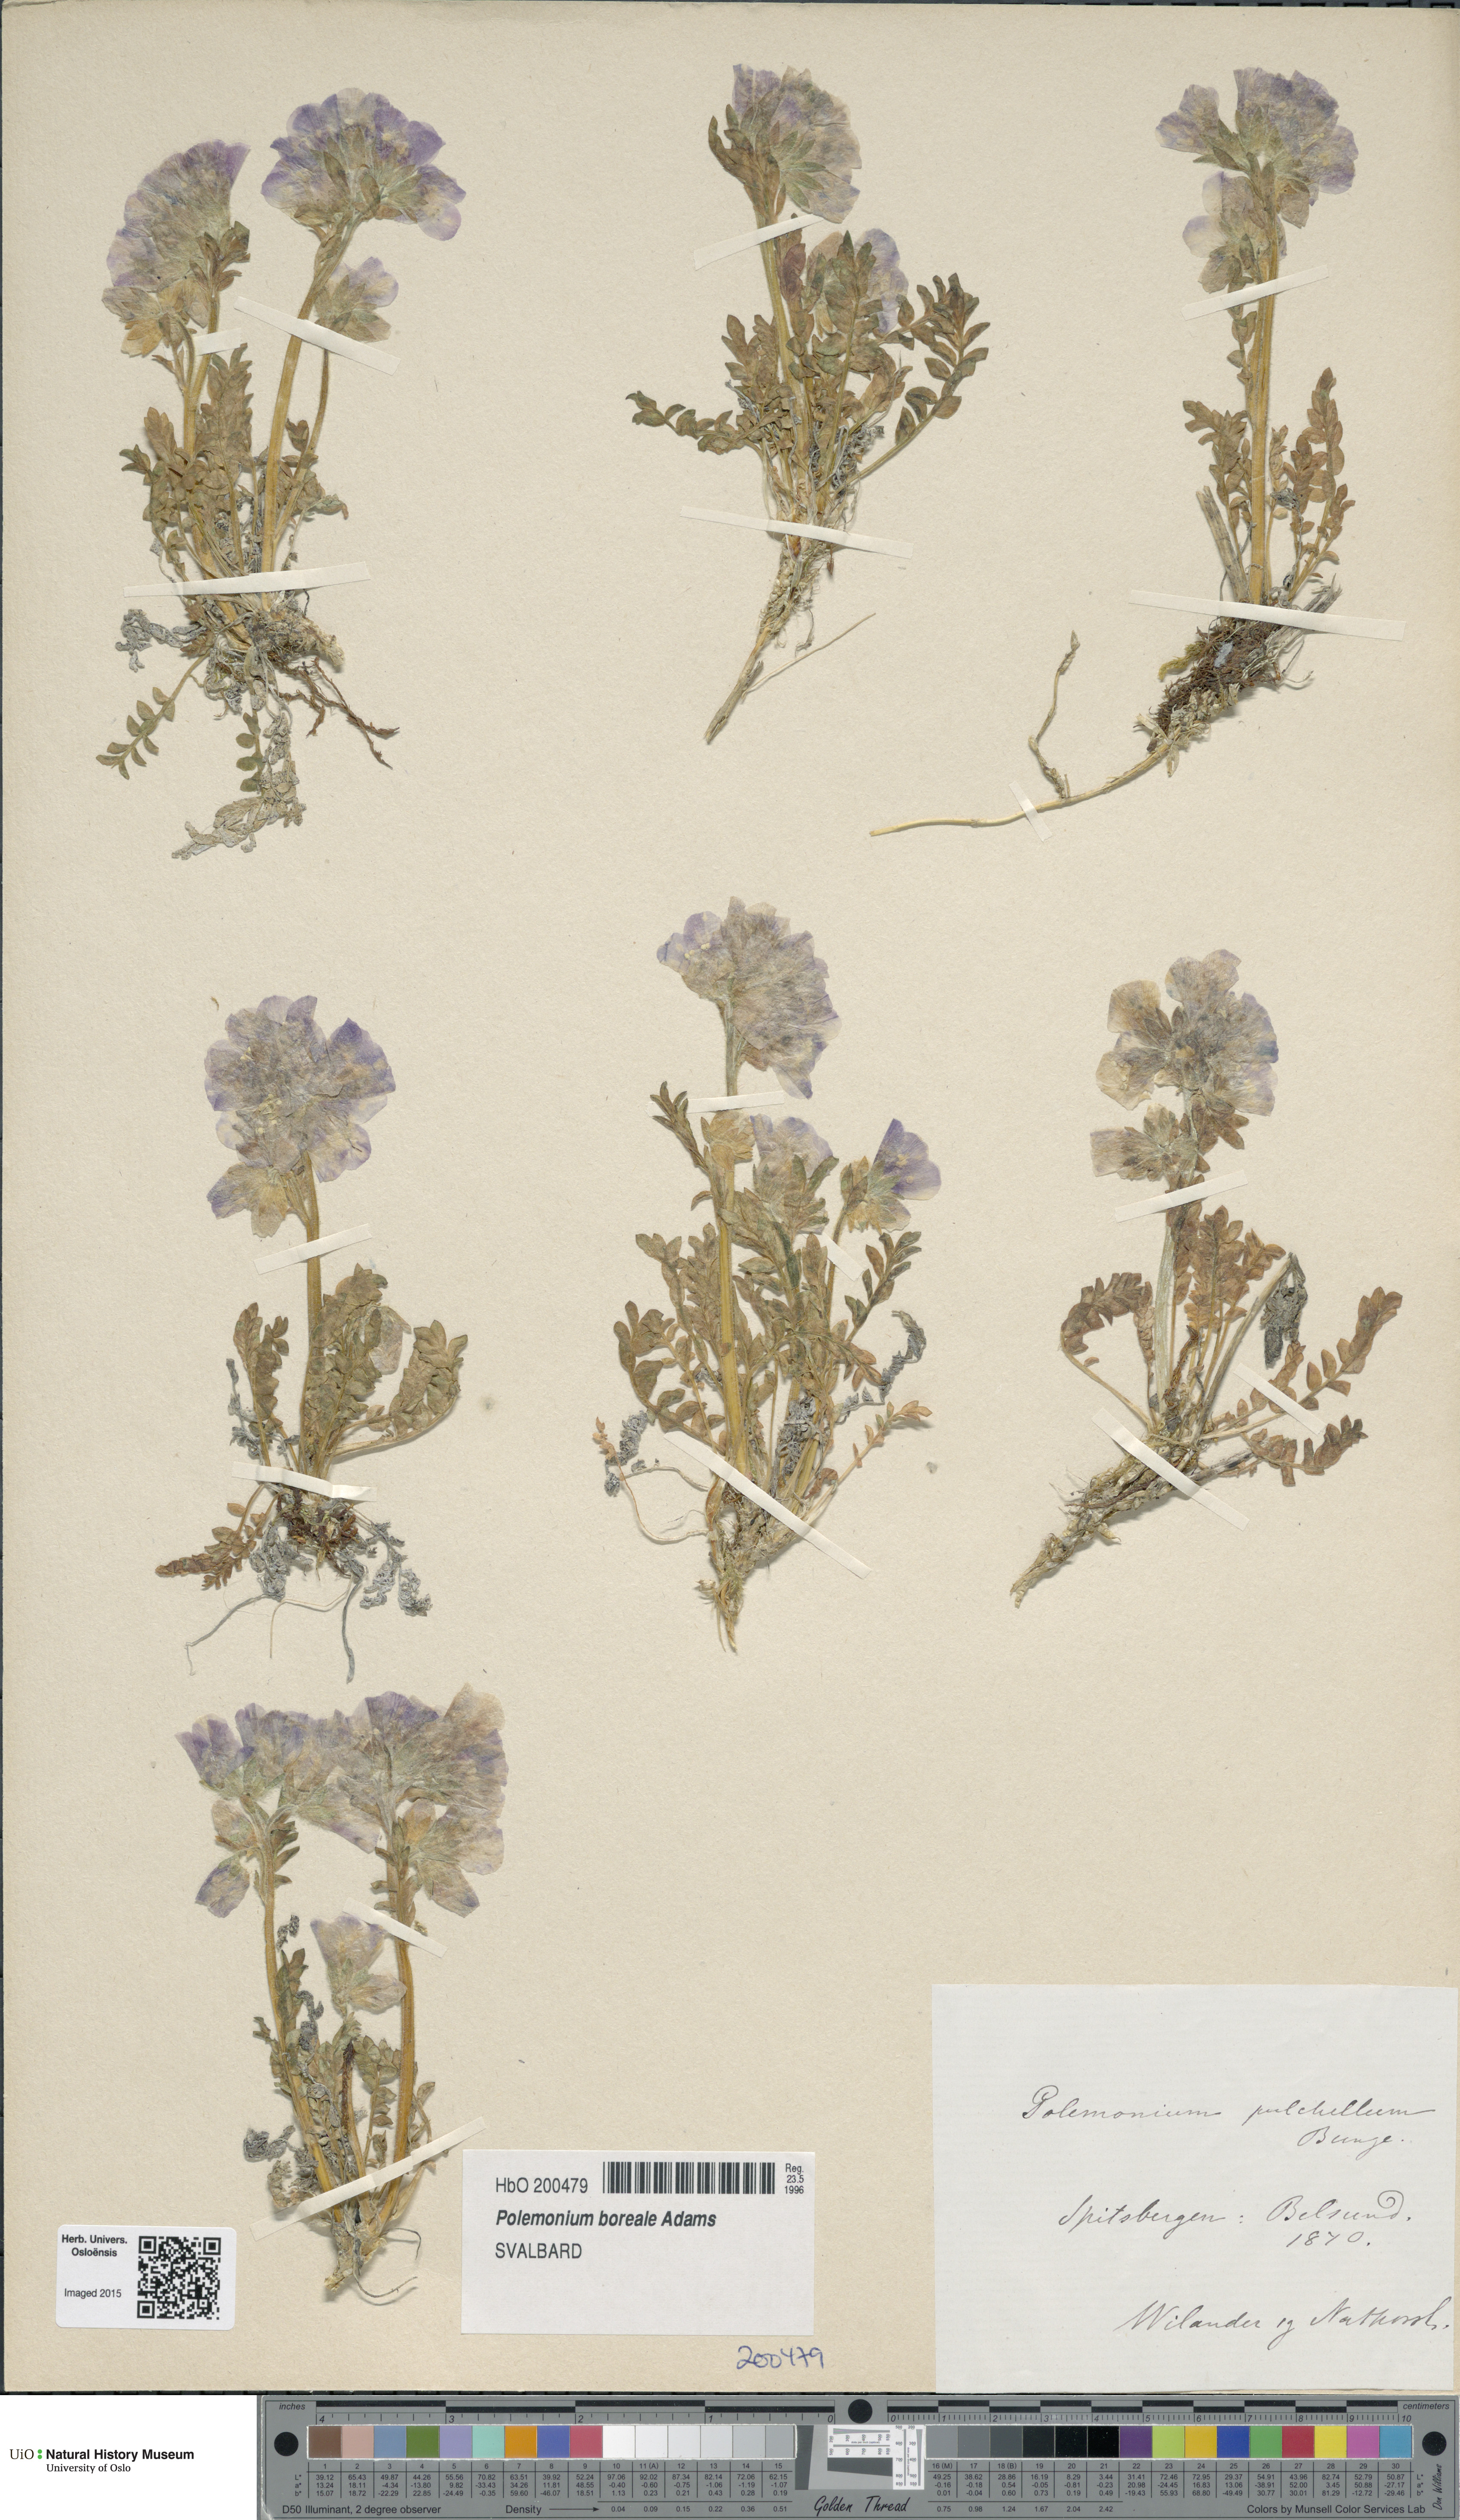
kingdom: Plantae
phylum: Tracheophyta
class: Magnoliopsida
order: Ericales
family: Polemoniaceae
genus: Polemonium
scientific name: Polemonium boreale
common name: Boreal jacob's-ladder
